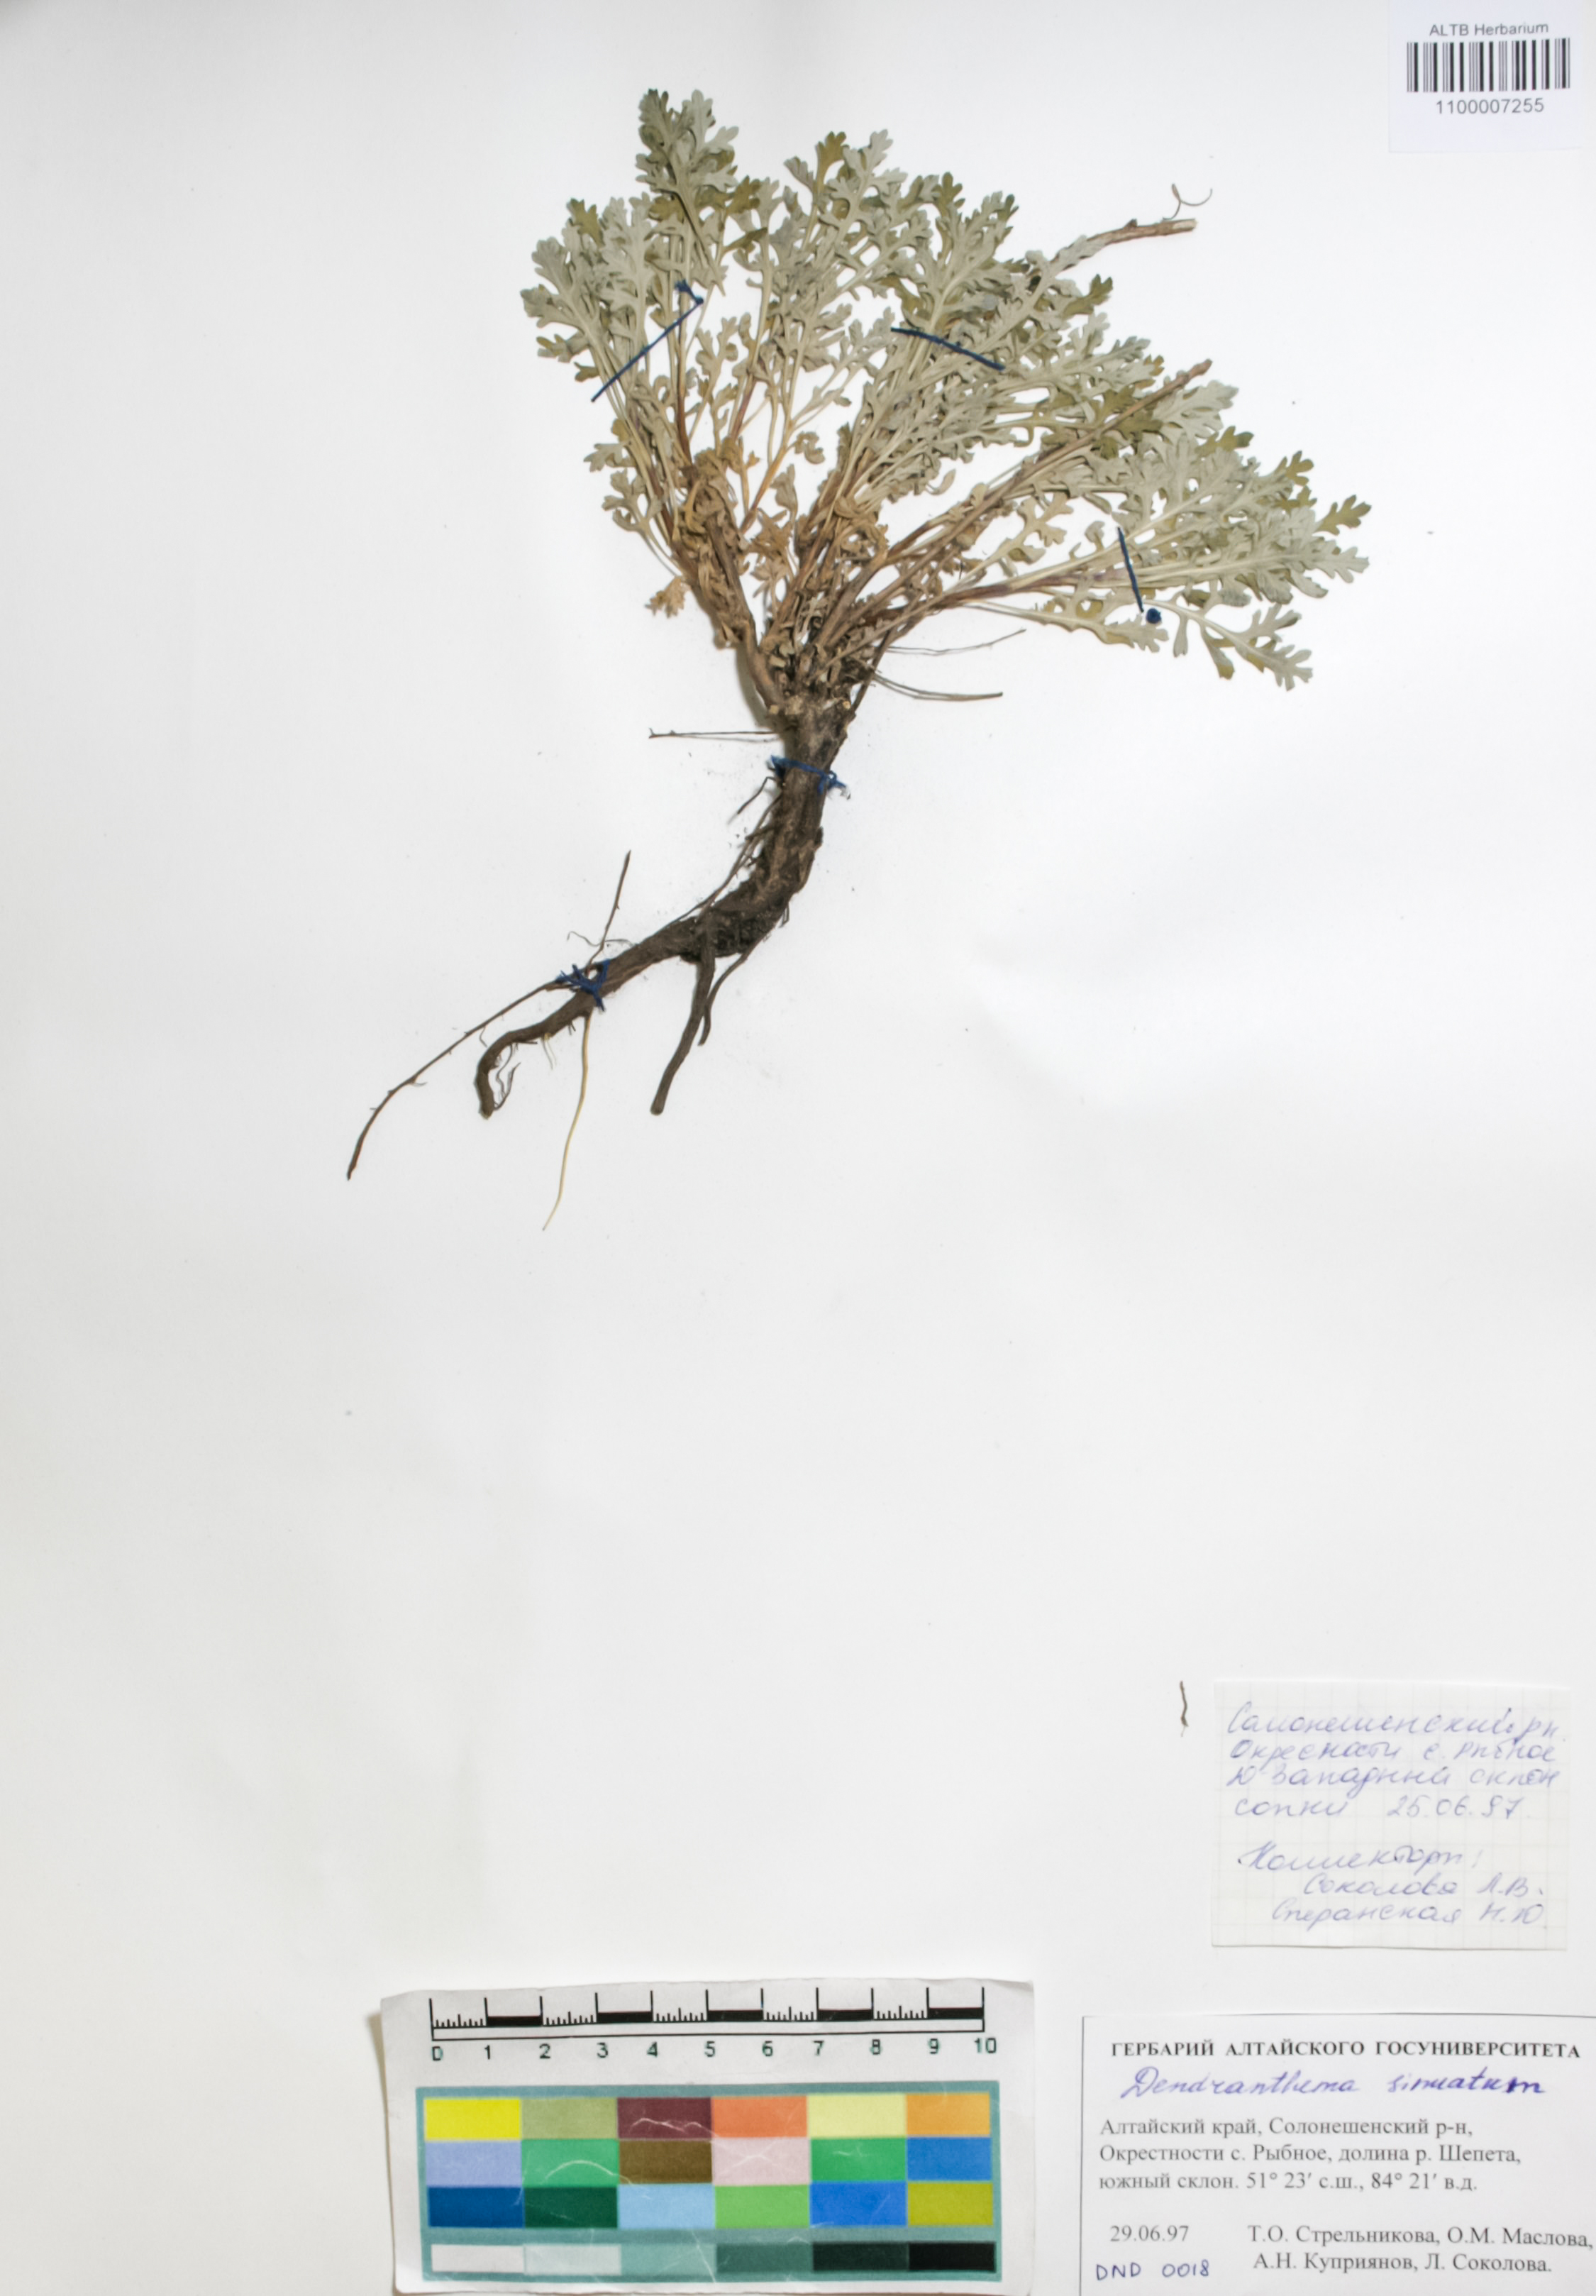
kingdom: Plantae
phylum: Tracheophyta
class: Magnoliopsida
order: Asterales
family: Asteraceae
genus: Chrysanthemum
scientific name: Chrysanthemum sinuatum
